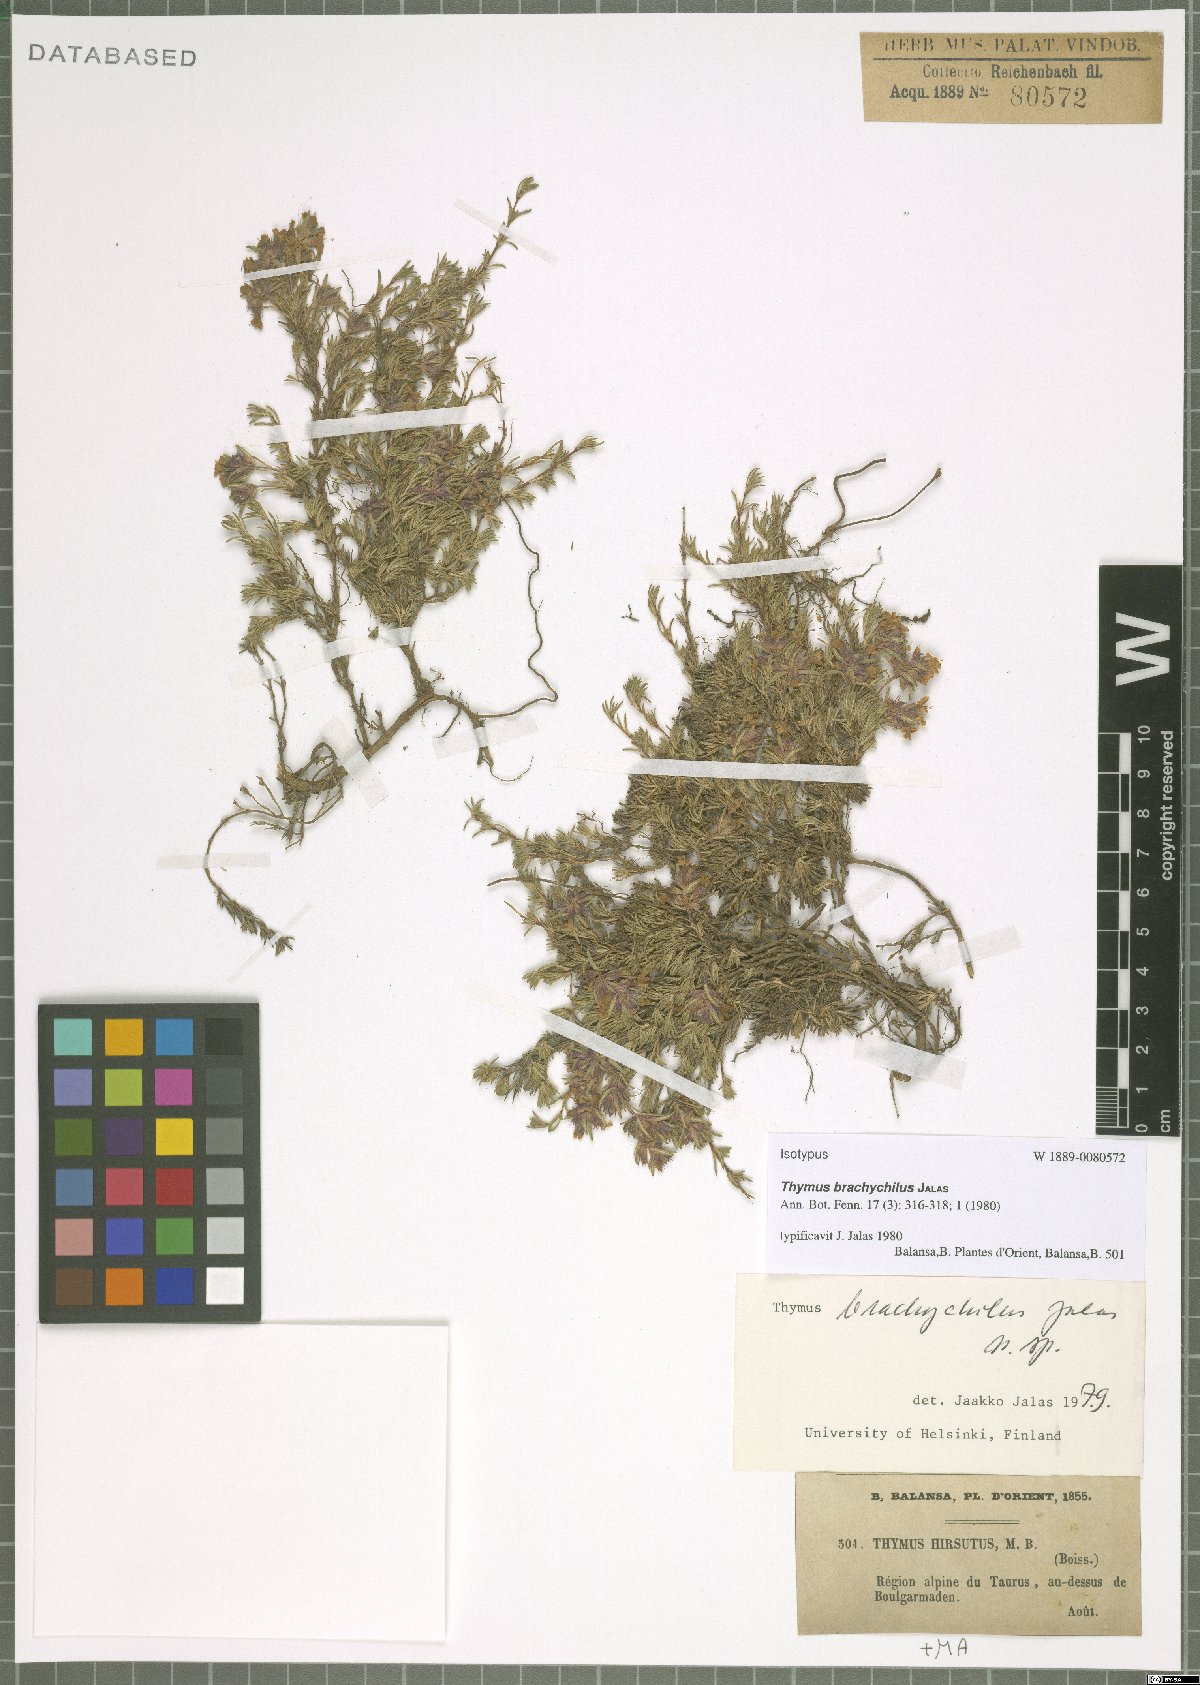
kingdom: Plantae
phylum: Tracheophyta
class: Magnoliopsida
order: Lamiales
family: Lamiaceae
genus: Thymus
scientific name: Thymus brachychilus
